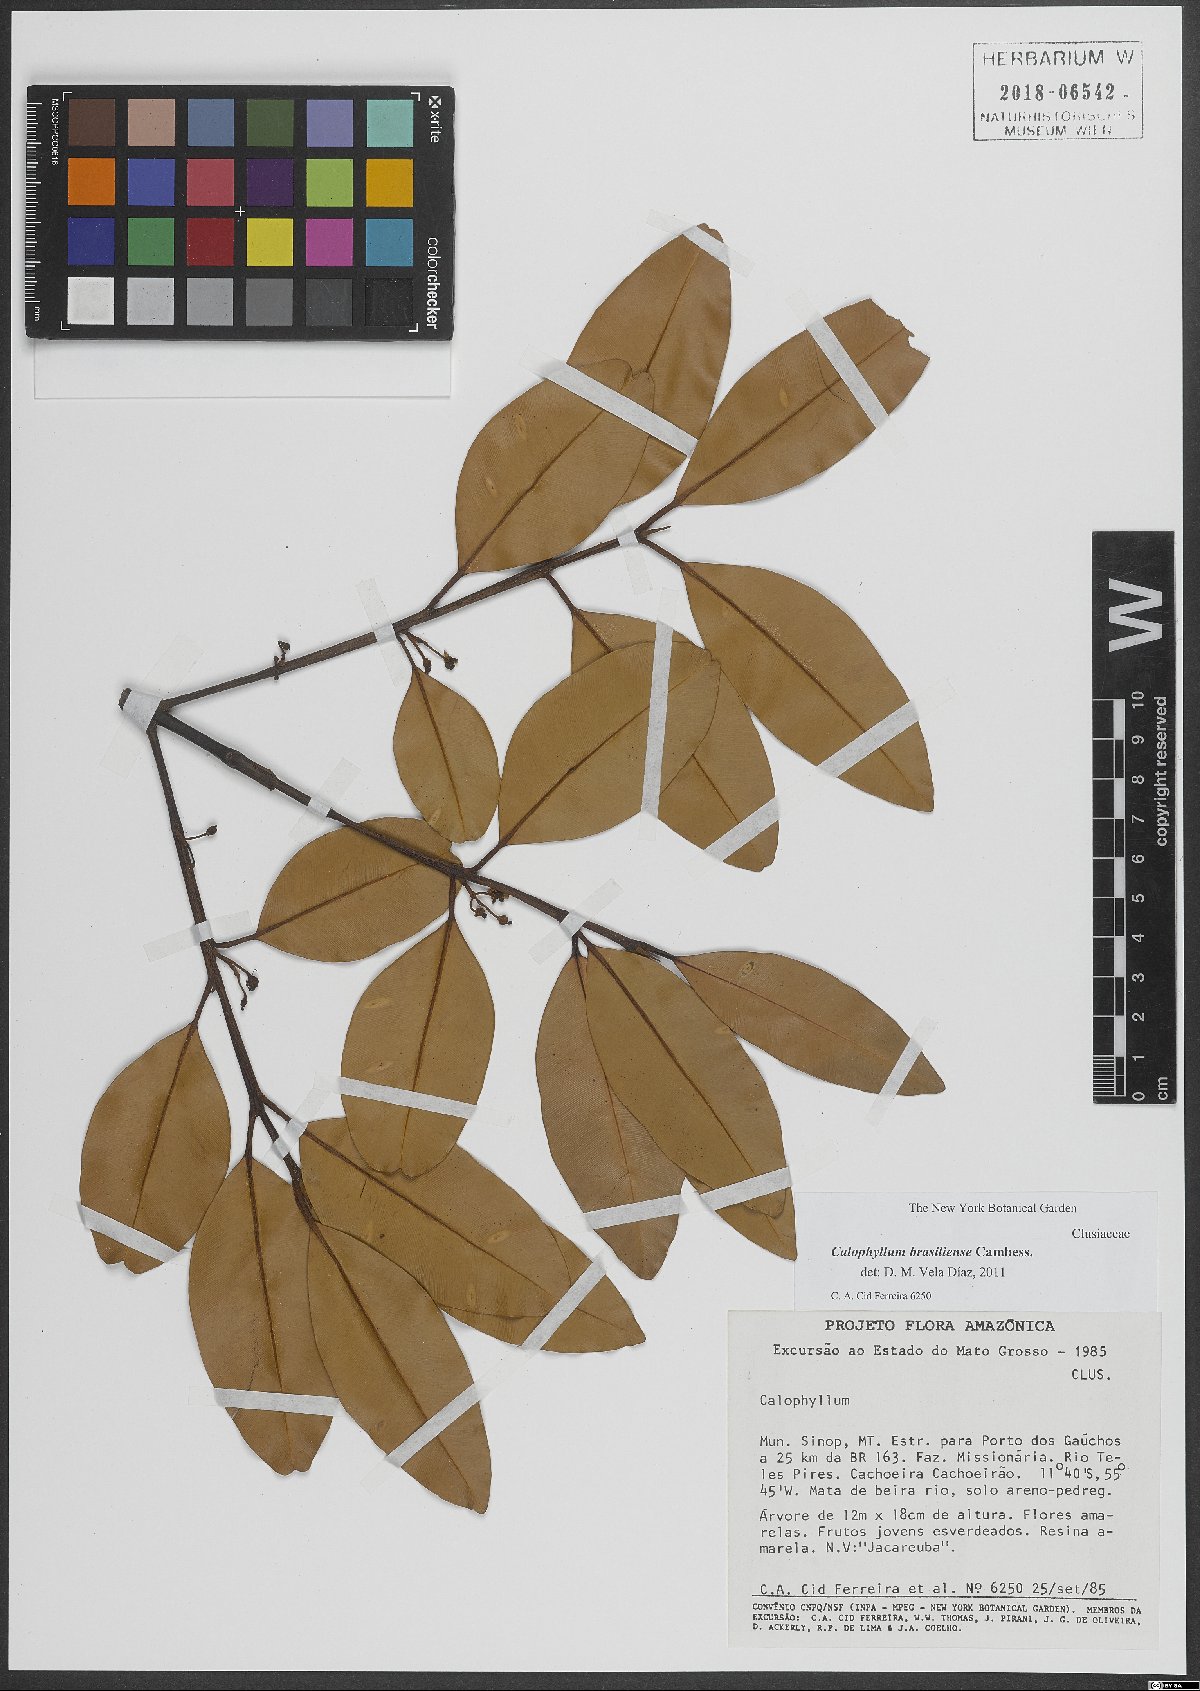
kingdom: Plantae
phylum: Tracheophyta
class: Magnoliopsida
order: Malpighiales
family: Calophyllaceae
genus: Calophyllum
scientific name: Calophyllum brasiliense
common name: Santa maria
